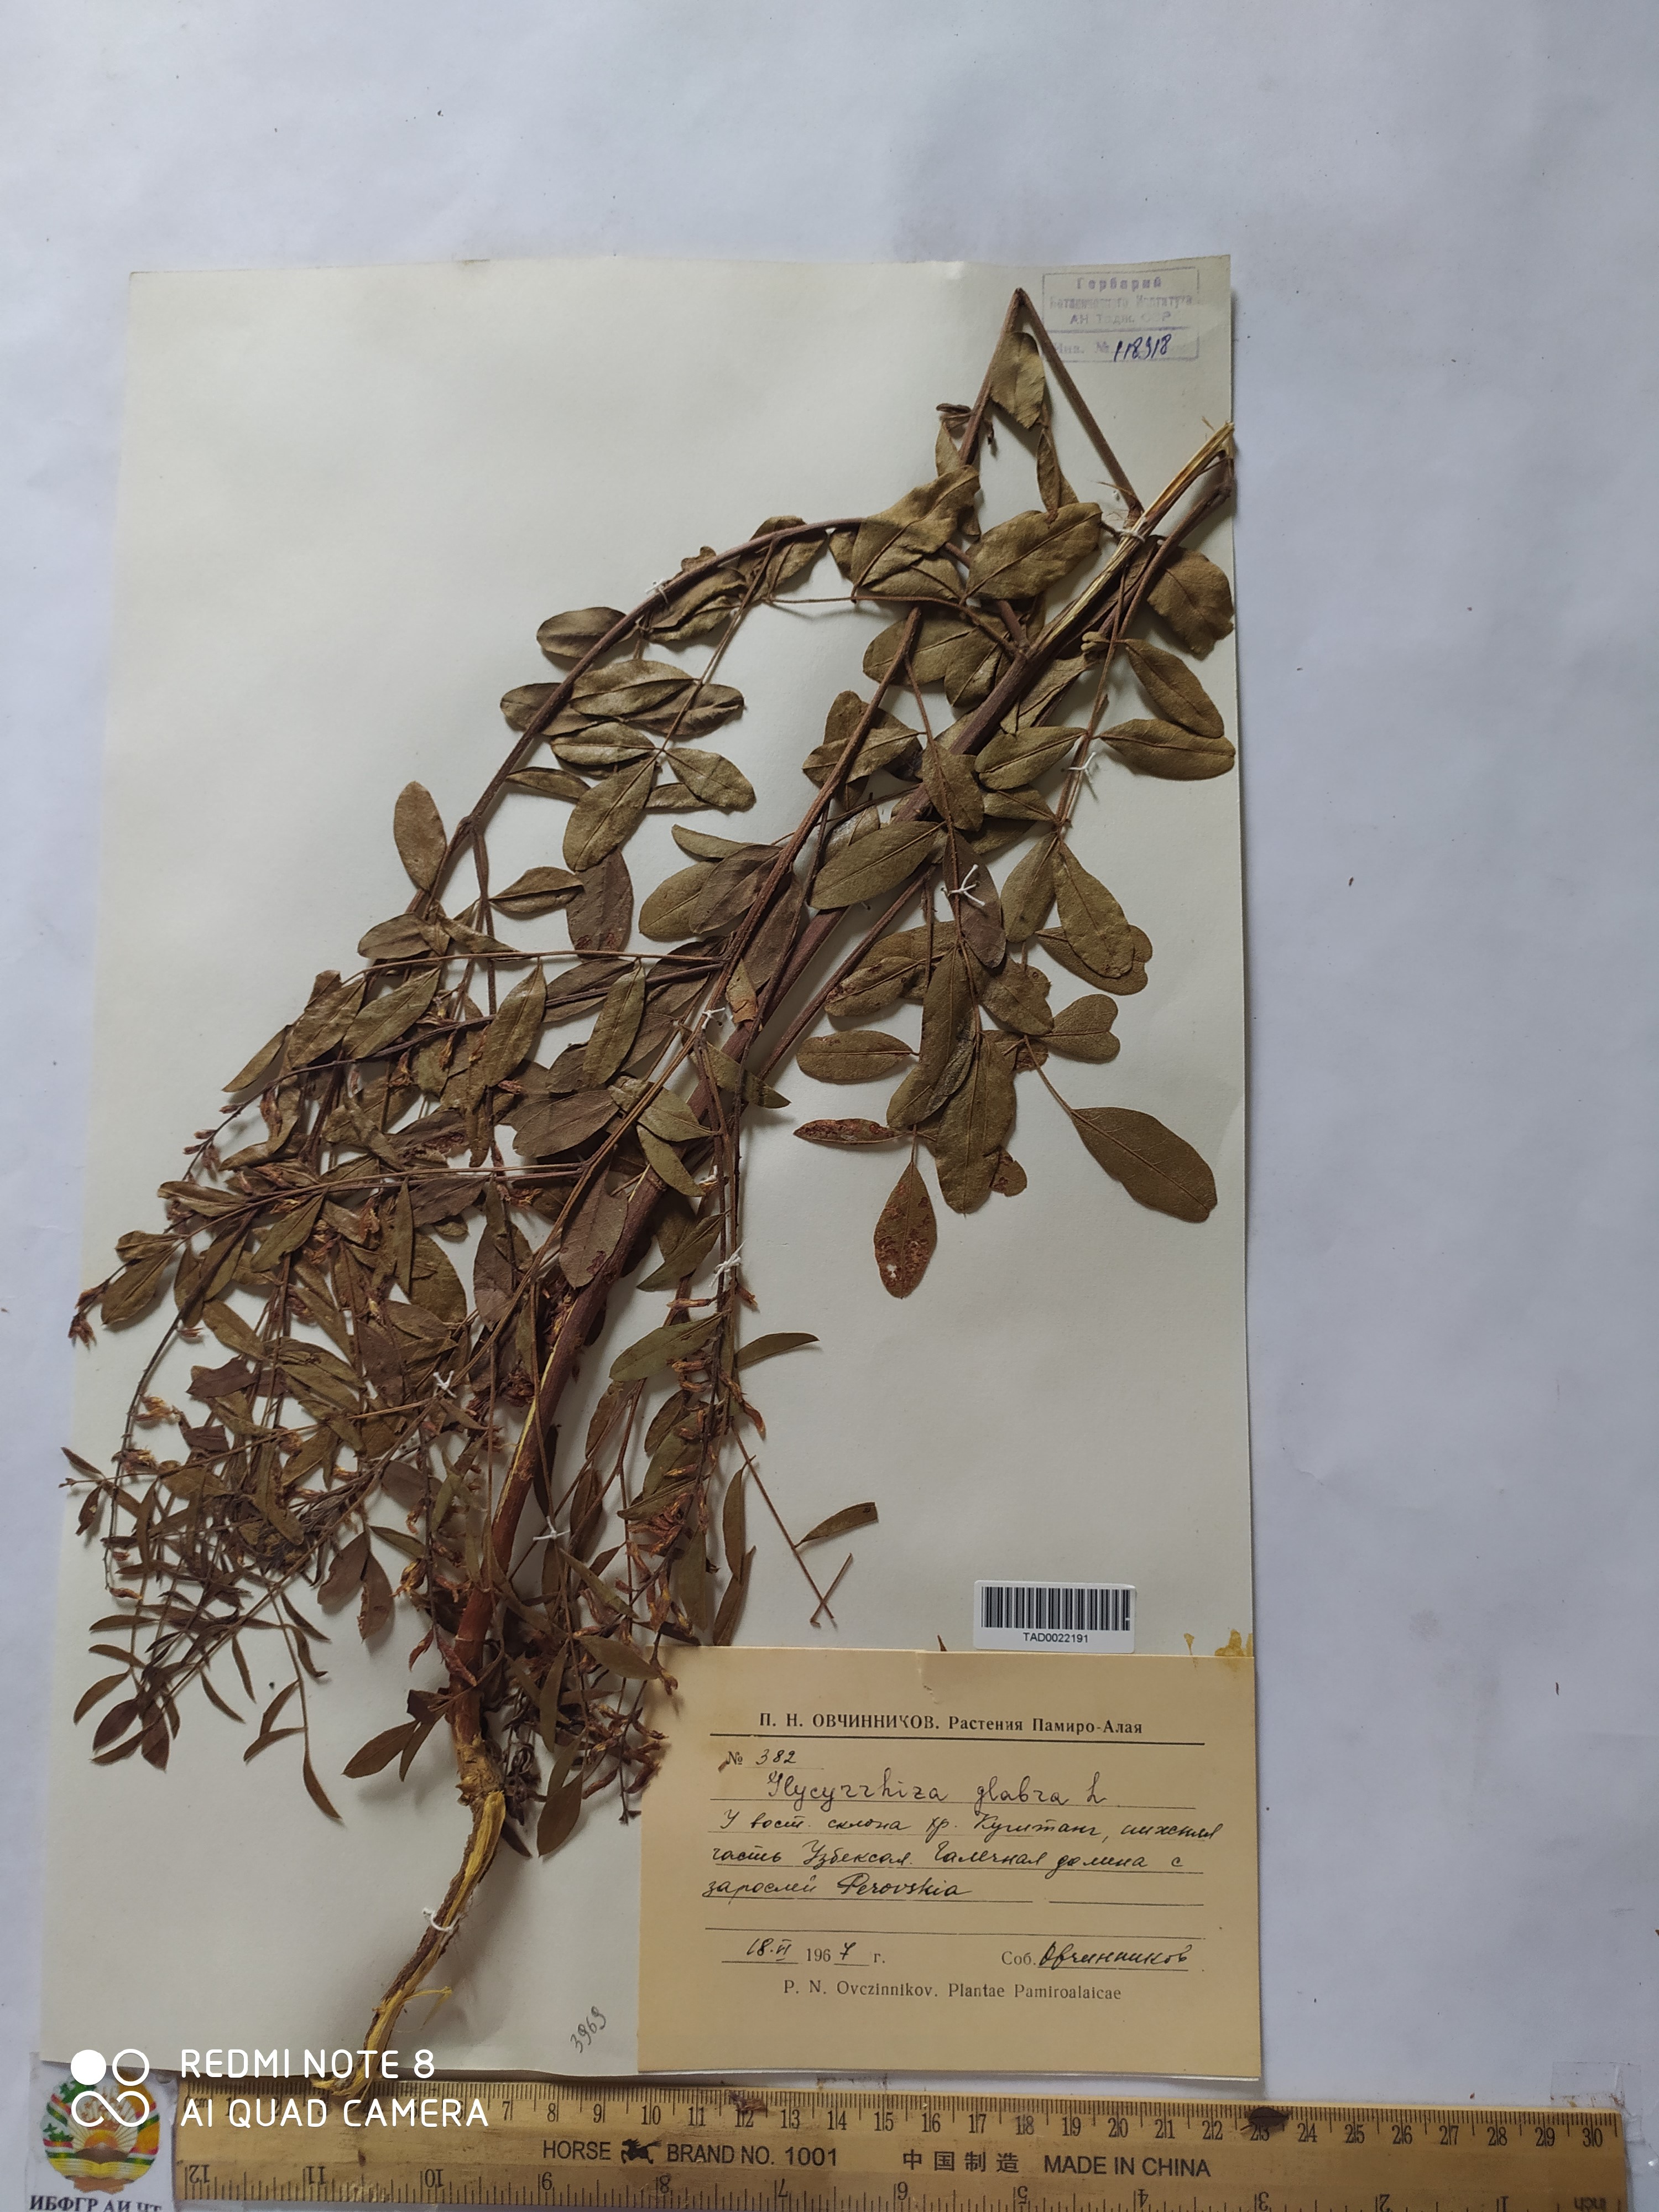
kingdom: Plantae
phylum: Tracheophyta
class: Magnoliopsida
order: Fabales
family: Fabaceae
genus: Glycyrrhiza
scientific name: Glycyrrhiza glabra
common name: Liquorice
